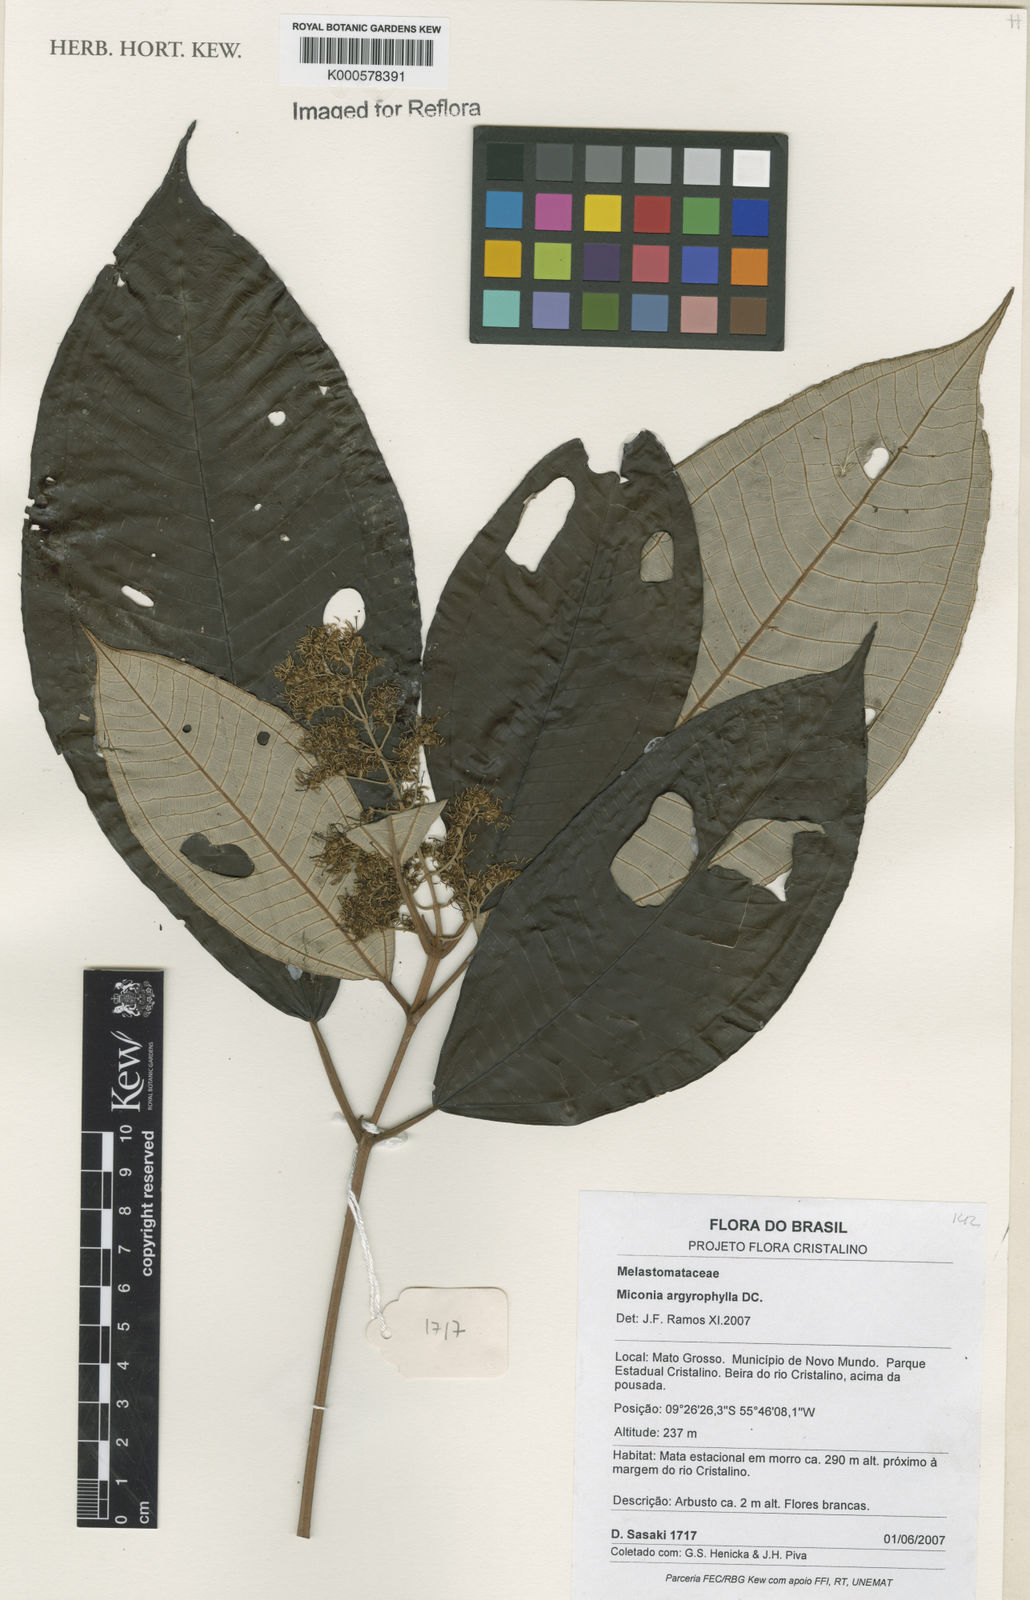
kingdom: Plantae
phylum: Tracheophyta
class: Magnoliopsida
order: Myrtales
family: Melastomataceae
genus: Miconia
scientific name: Miconia argyrophylla
